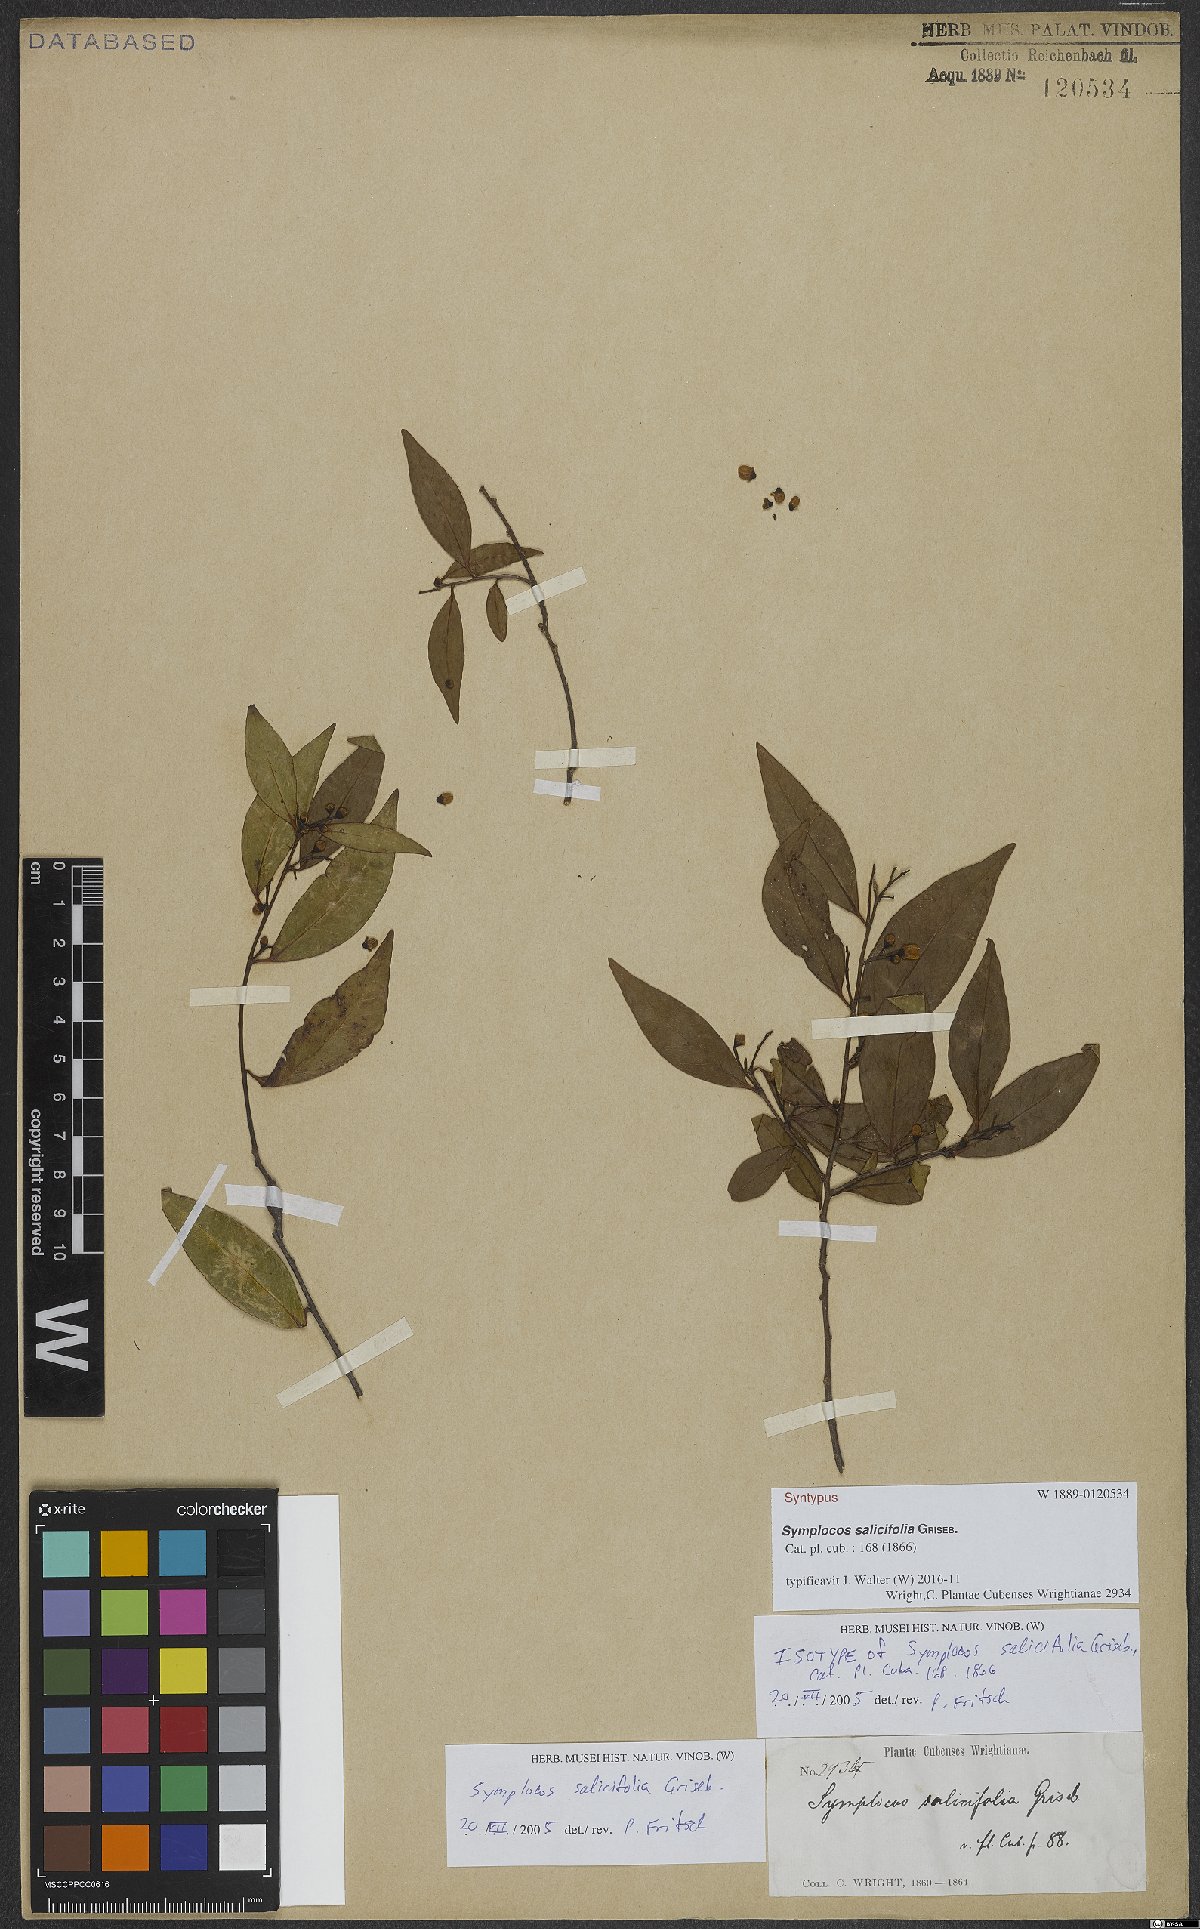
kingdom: Plantae
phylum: Tracheophyta
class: Magnoliopsida
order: Ericales
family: Symplocaceae
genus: Symplocos
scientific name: Symplocos salicifolia
